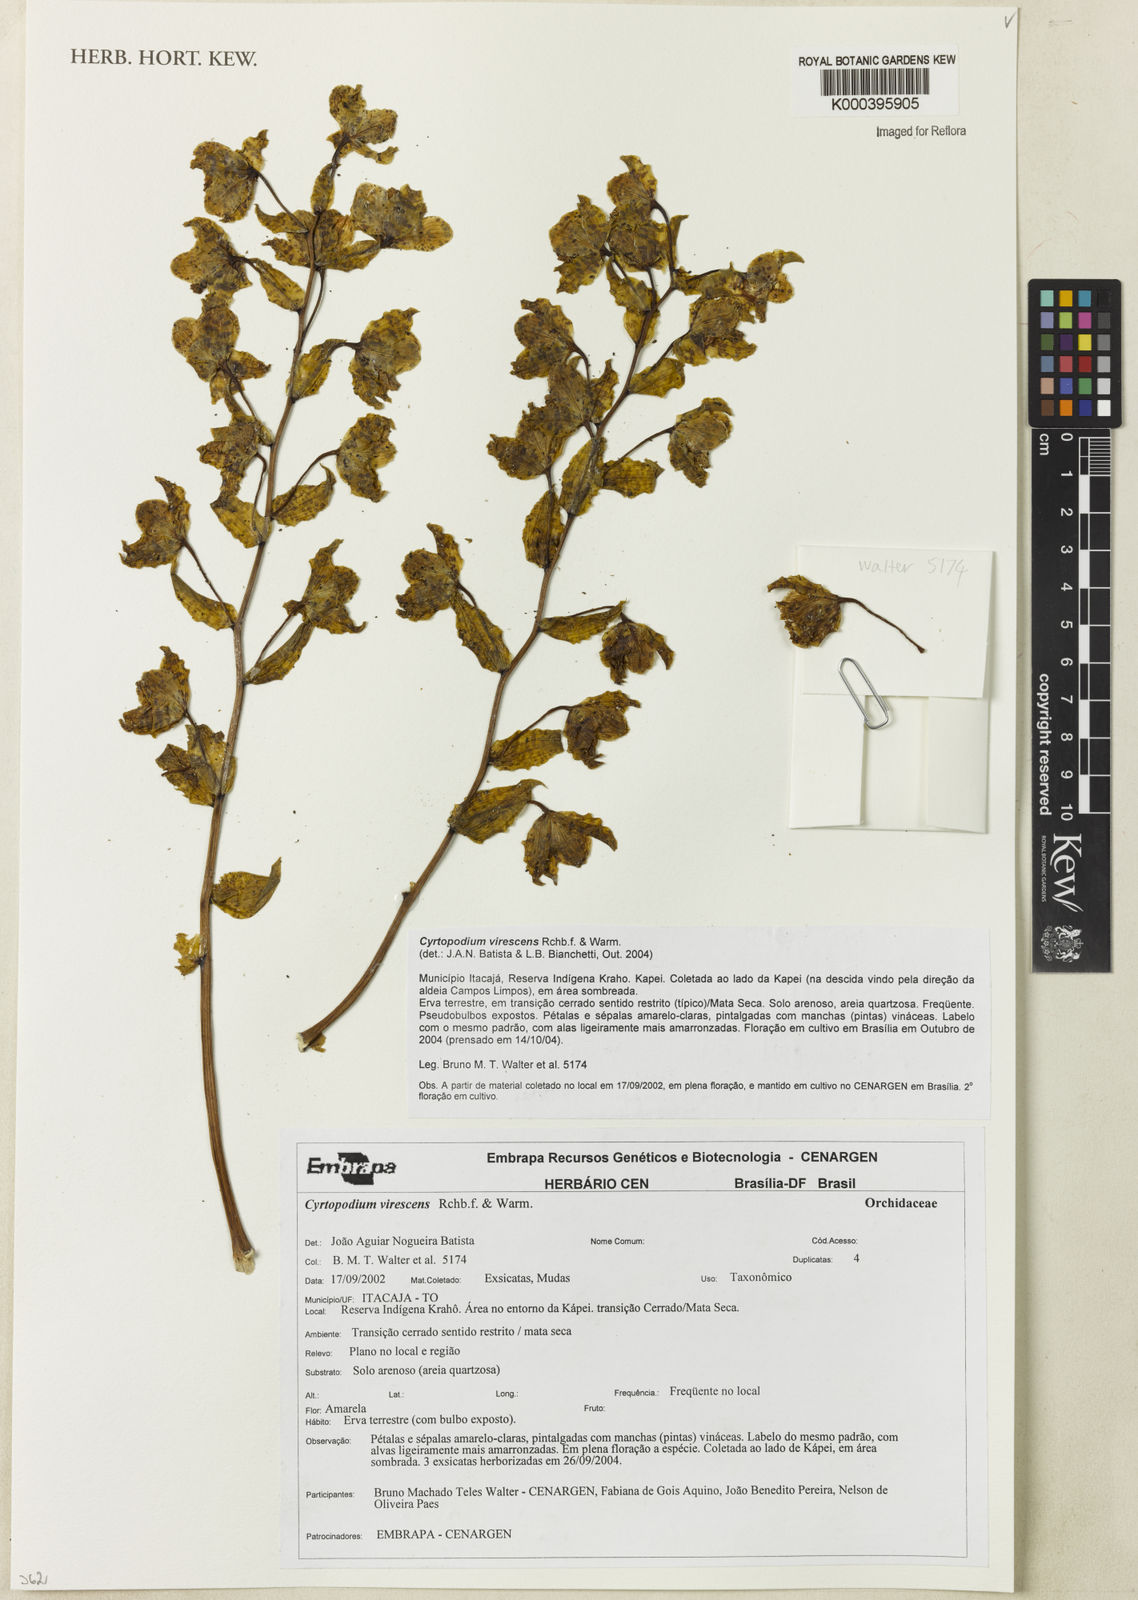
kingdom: Plantae
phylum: Tracheophyta
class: Liliopsida
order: Asparagales
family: Orchidaceae
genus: Cyrtopodium
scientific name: Cyrtopodium virescens
